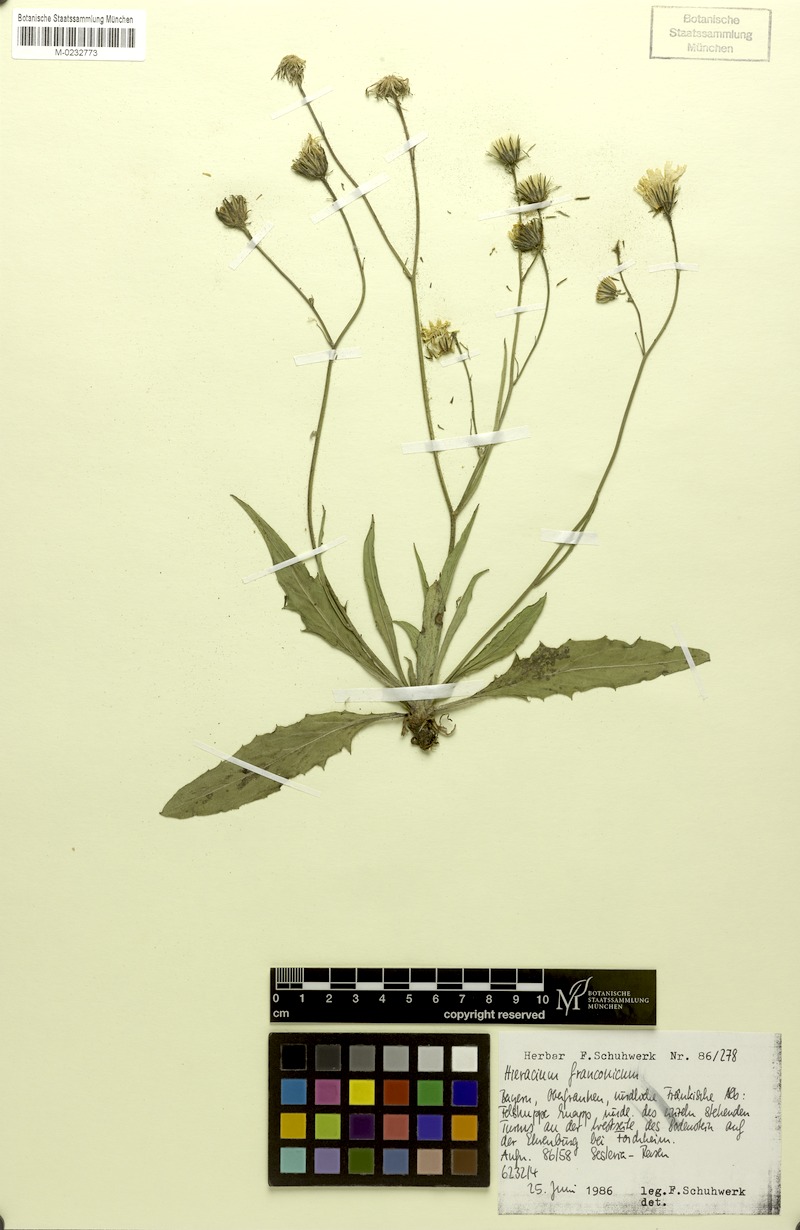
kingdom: Plantae
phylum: Tracheophyta
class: Magnoliopsida
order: Asterales
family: Asteraceae
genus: Hieracium
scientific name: Hieracium franconicum
